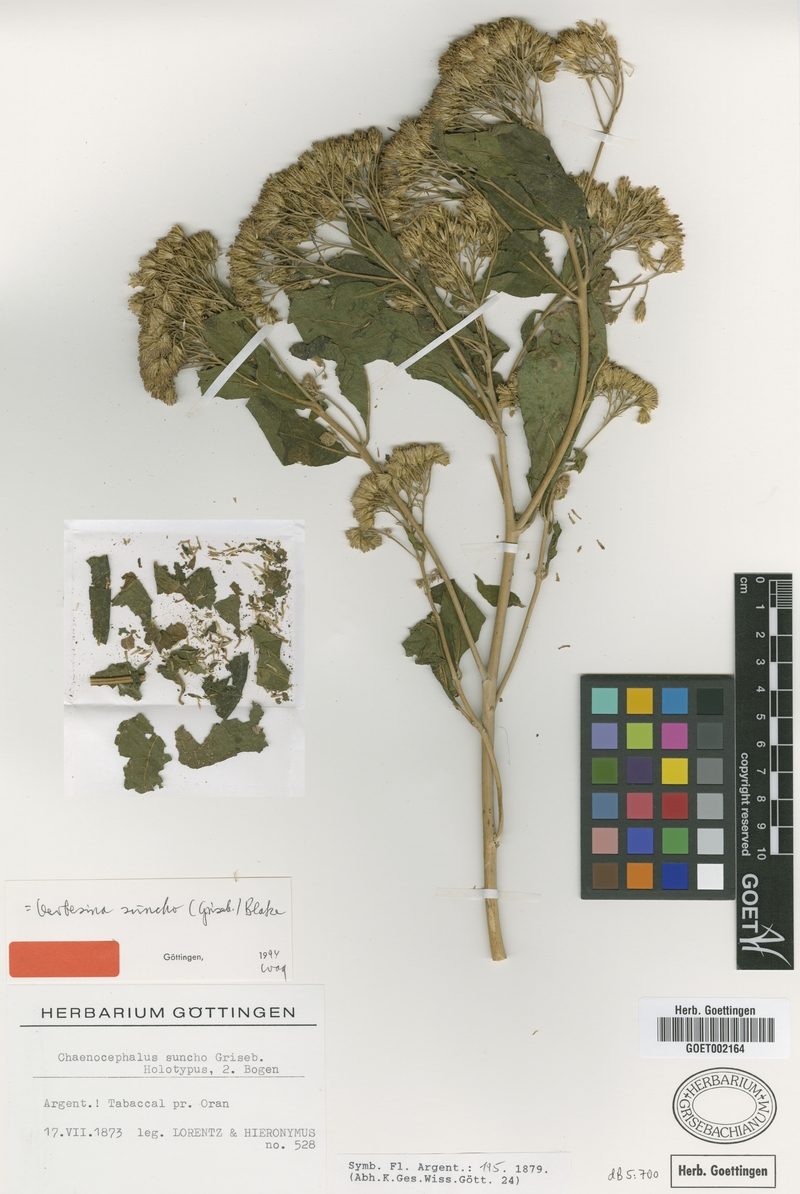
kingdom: Plantae
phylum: Tracheophyta
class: Magnoliopsida
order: Asterales
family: Asteraceae
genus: Verbesina
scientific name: Verbesina suncho
